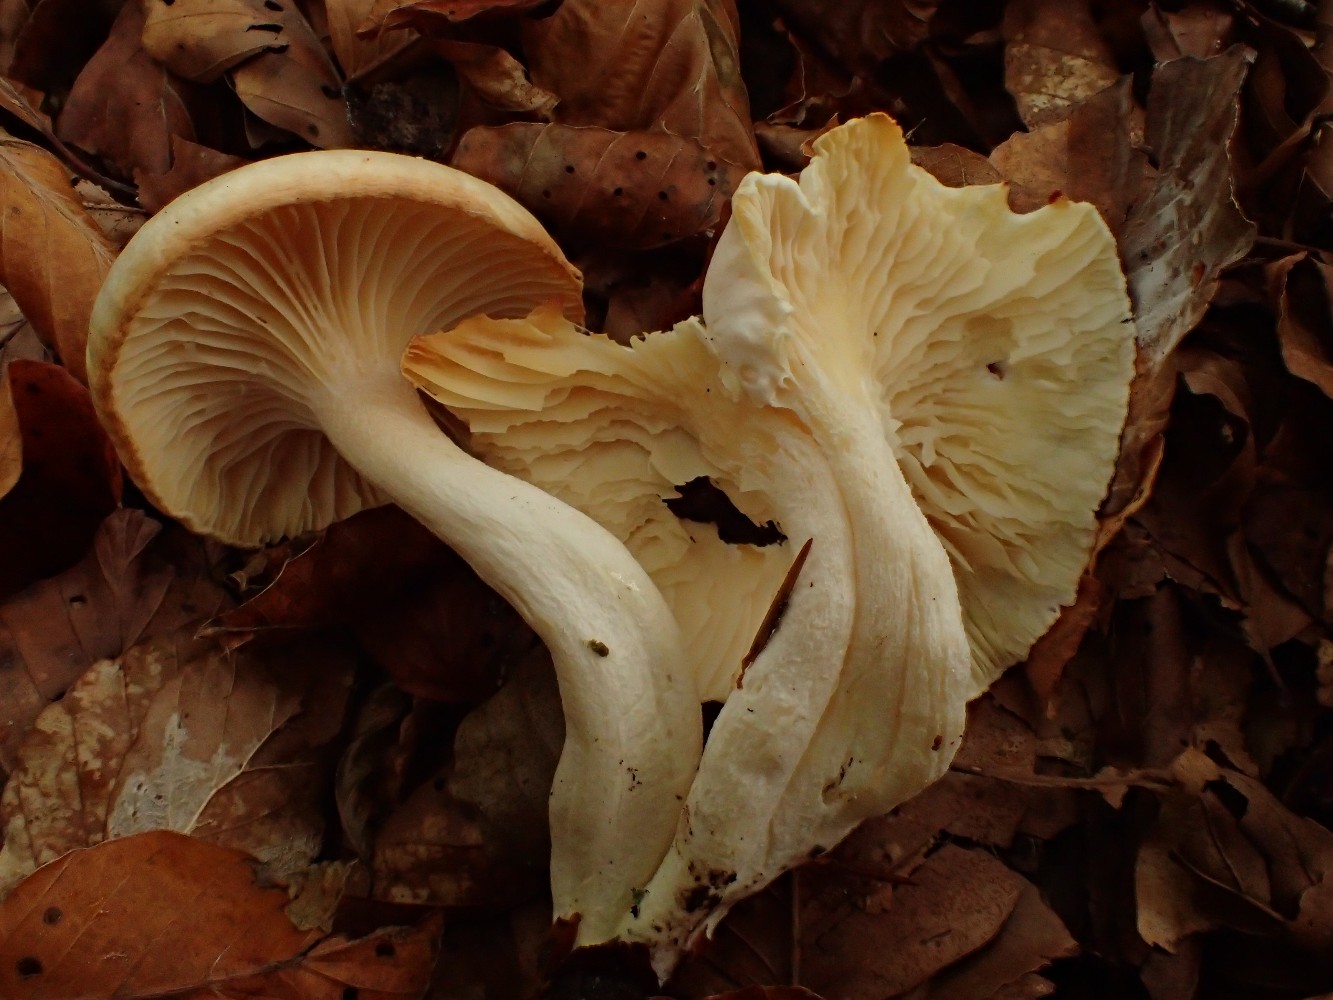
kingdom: Fungi
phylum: Basidiomycota
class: Agaricomycetes
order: Agaricales
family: Hygrophoraceae
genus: Hygrophorus
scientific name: Hygrophorus discoxanthus
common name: ildelugtende sneglehat
